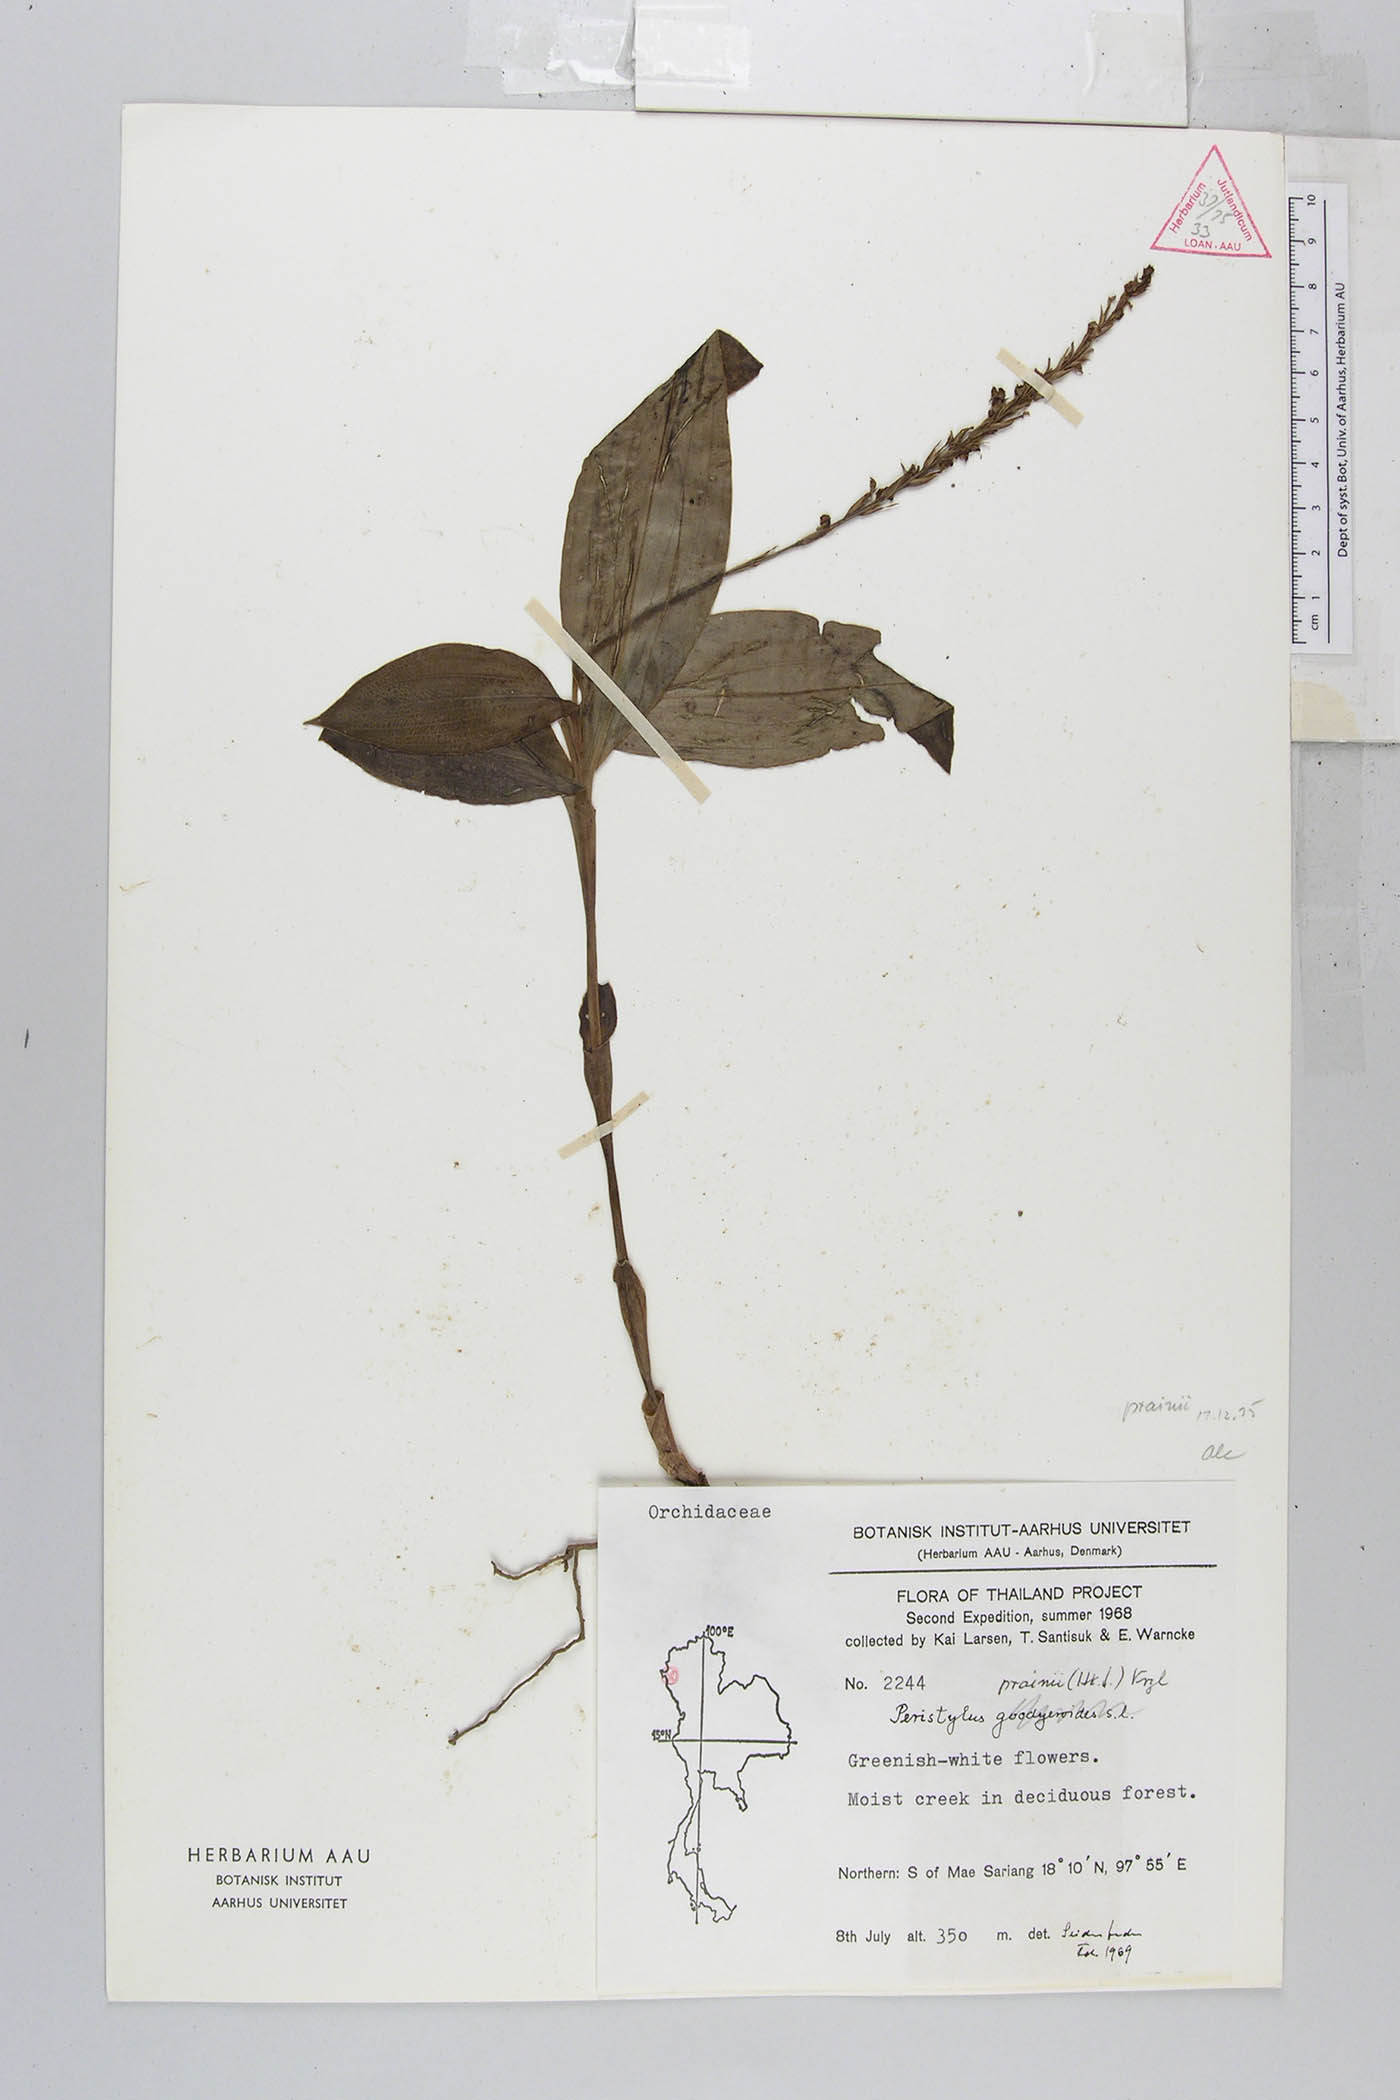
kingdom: Plantae
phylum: Tracheophyta
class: Liliopsida
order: Asparagales
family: Orchidaceae
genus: Peristylus
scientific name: Peristylus prainii
